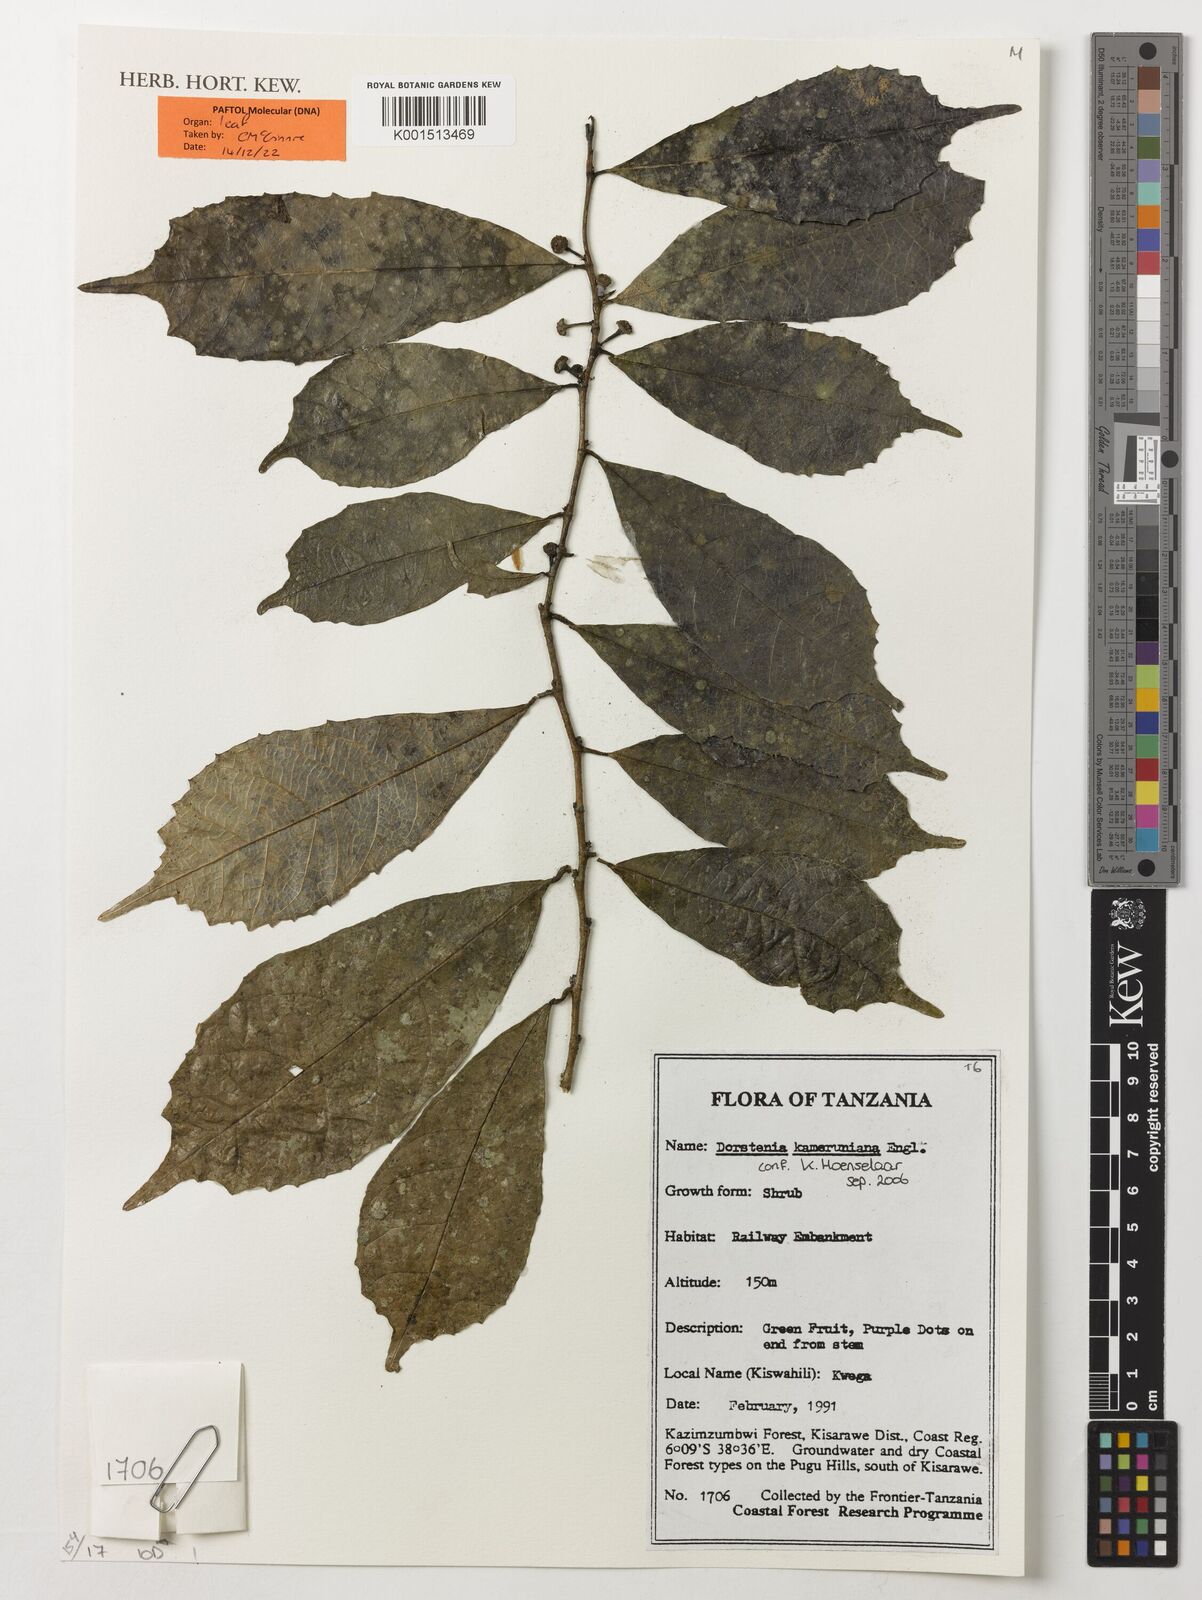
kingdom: Plantae
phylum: Tracheophyta
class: Magnoliopsida
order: Rosales
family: Moraceae
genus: Dorstenia
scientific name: Dorstenia kameruniana
